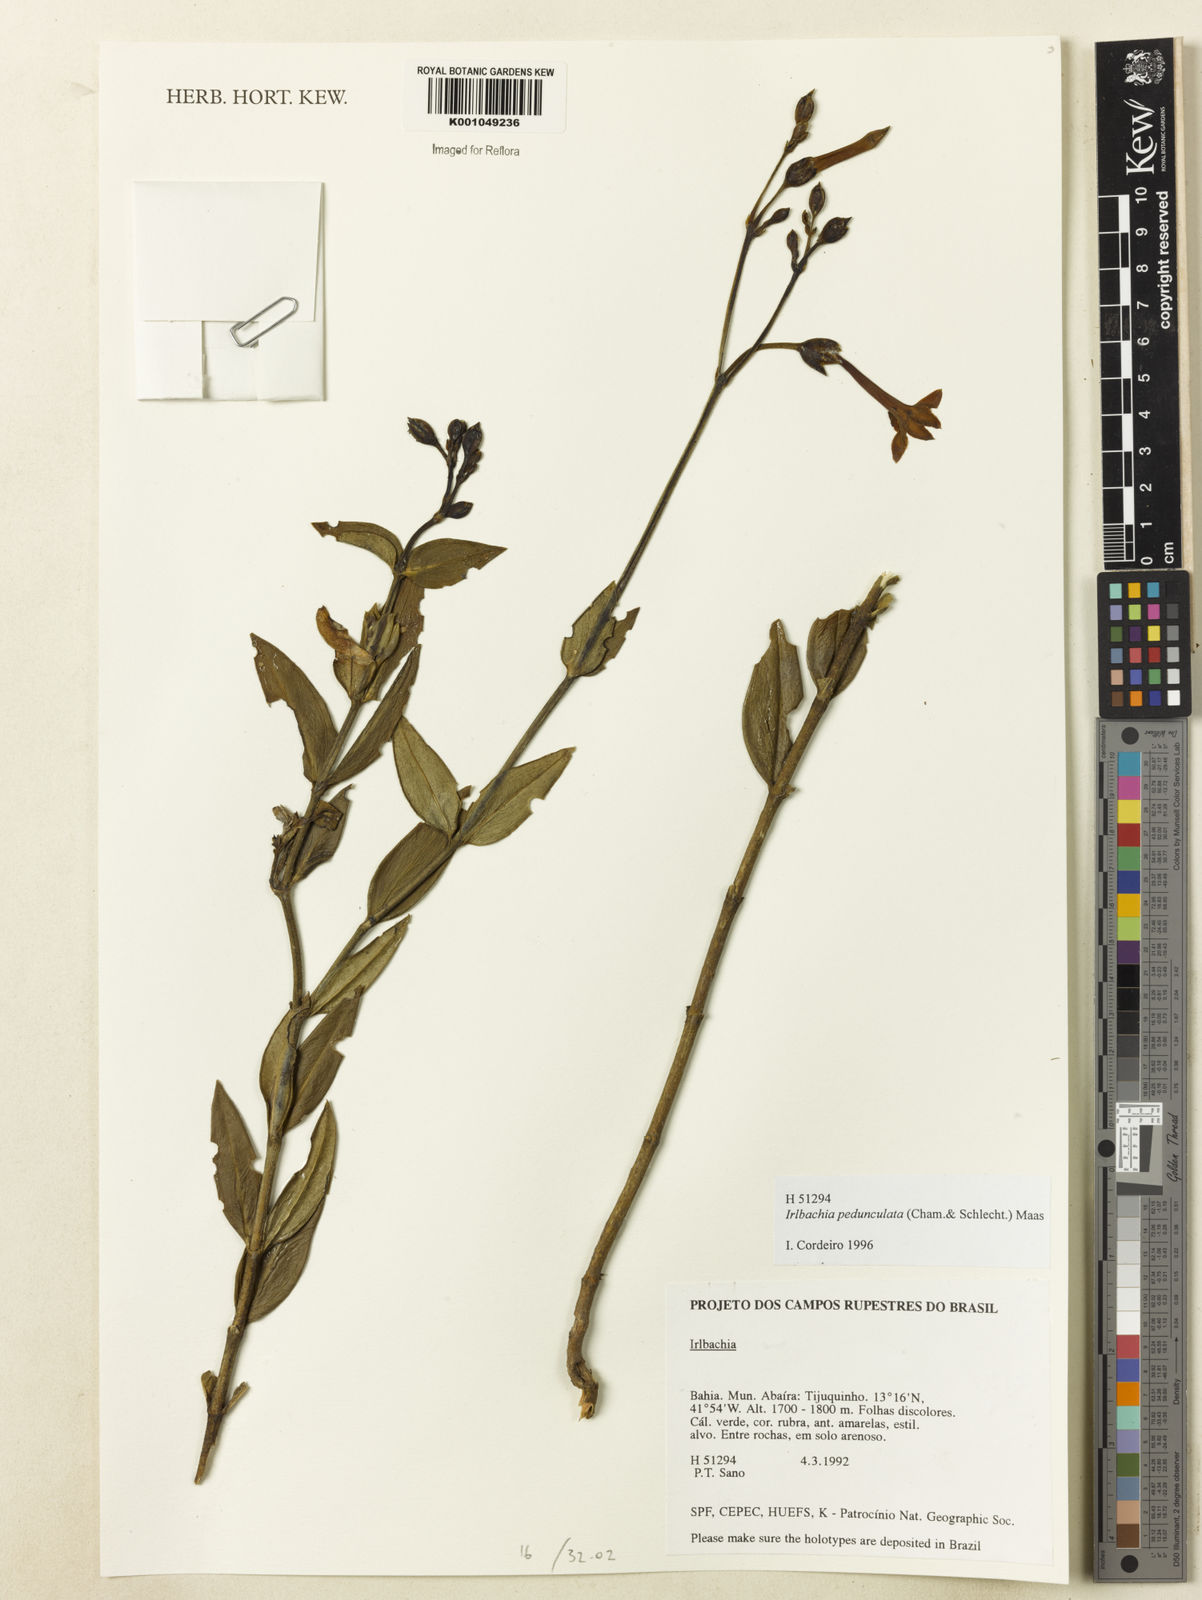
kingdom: Plantae
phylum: Tracheophyta
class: Magnoliopsida
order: Gentianales
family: Gentianaceae
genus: Calolisianthus
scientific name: Calolisianthus pedunculatus
